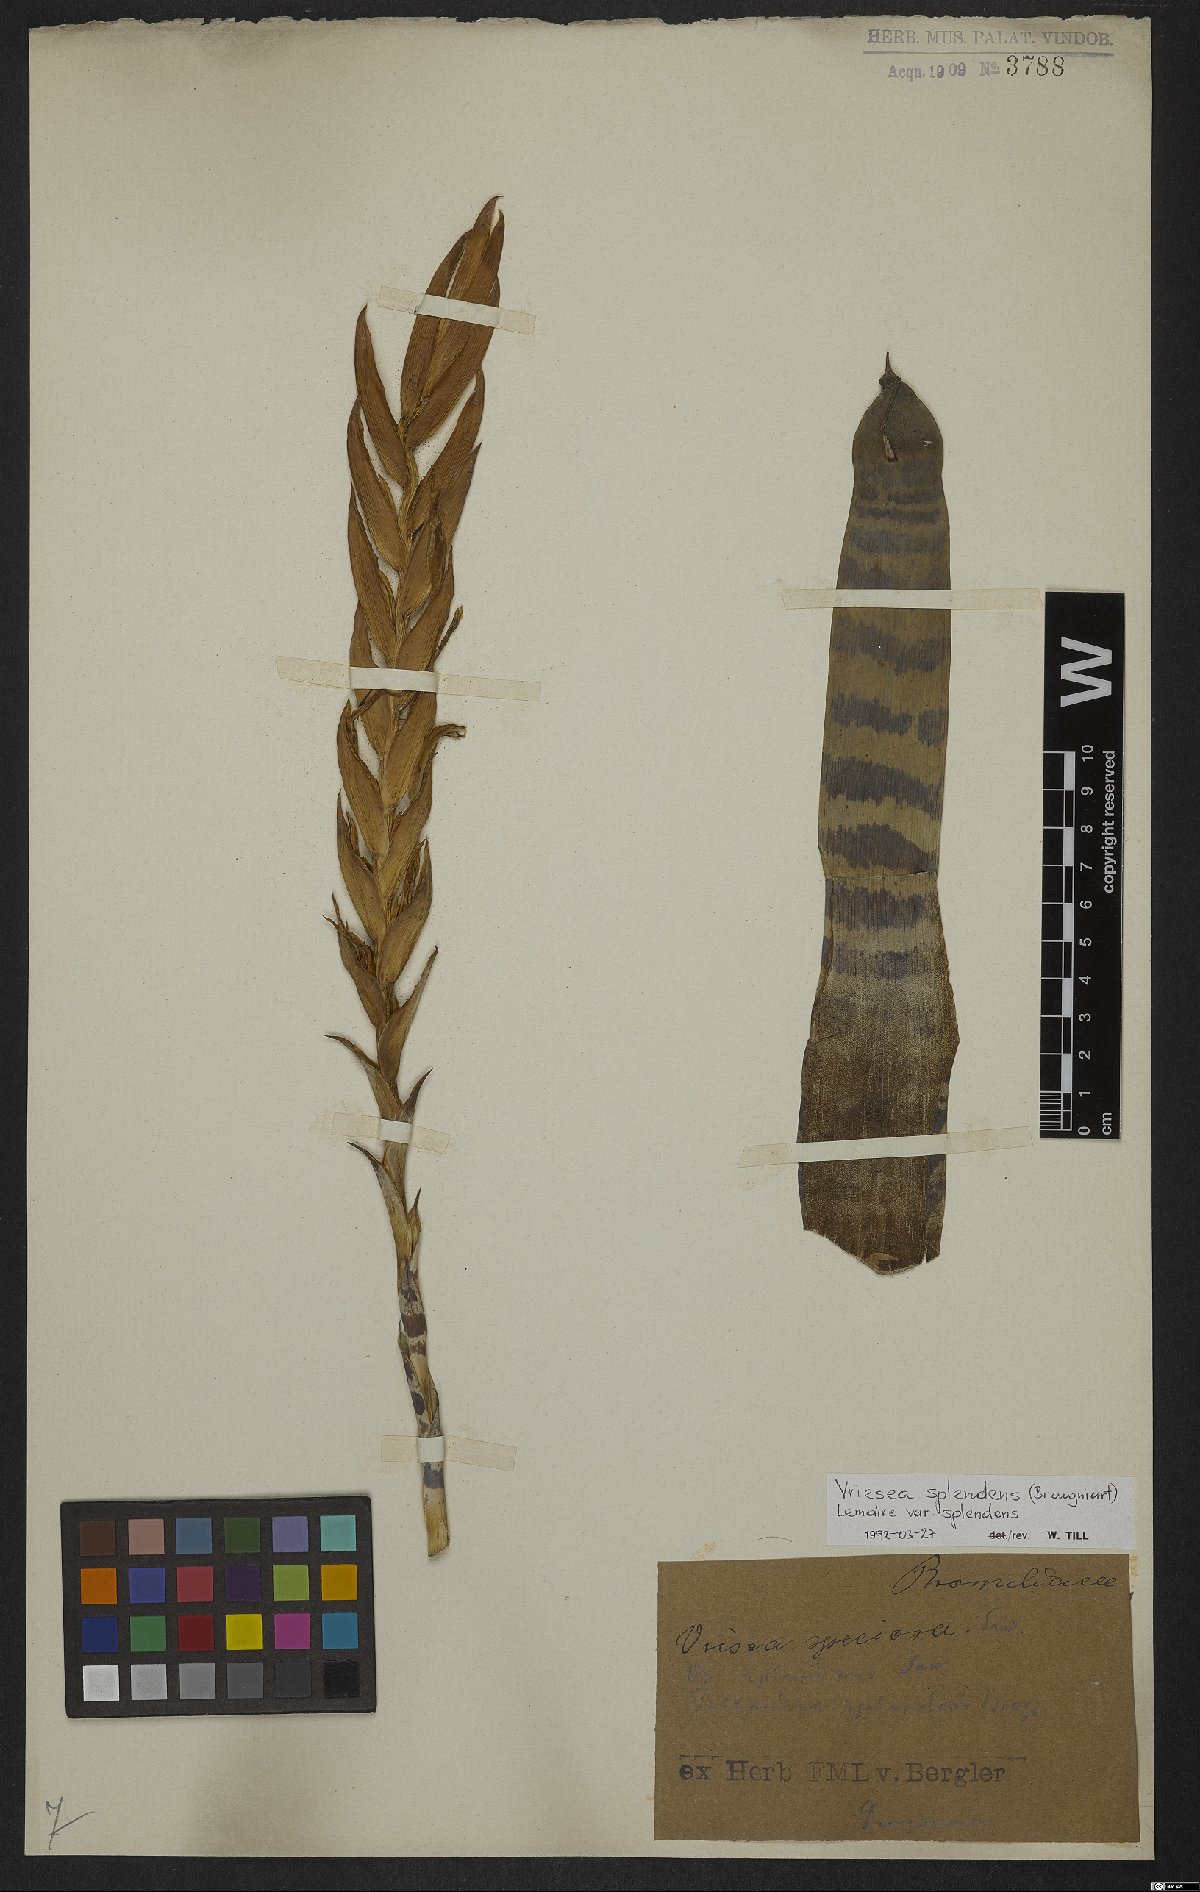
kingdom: Plantae
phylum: Tracheophyta
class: Liliopsida
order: Poales
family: Bromeliaceae
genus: Lutheria
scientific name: Lutheria splendens
